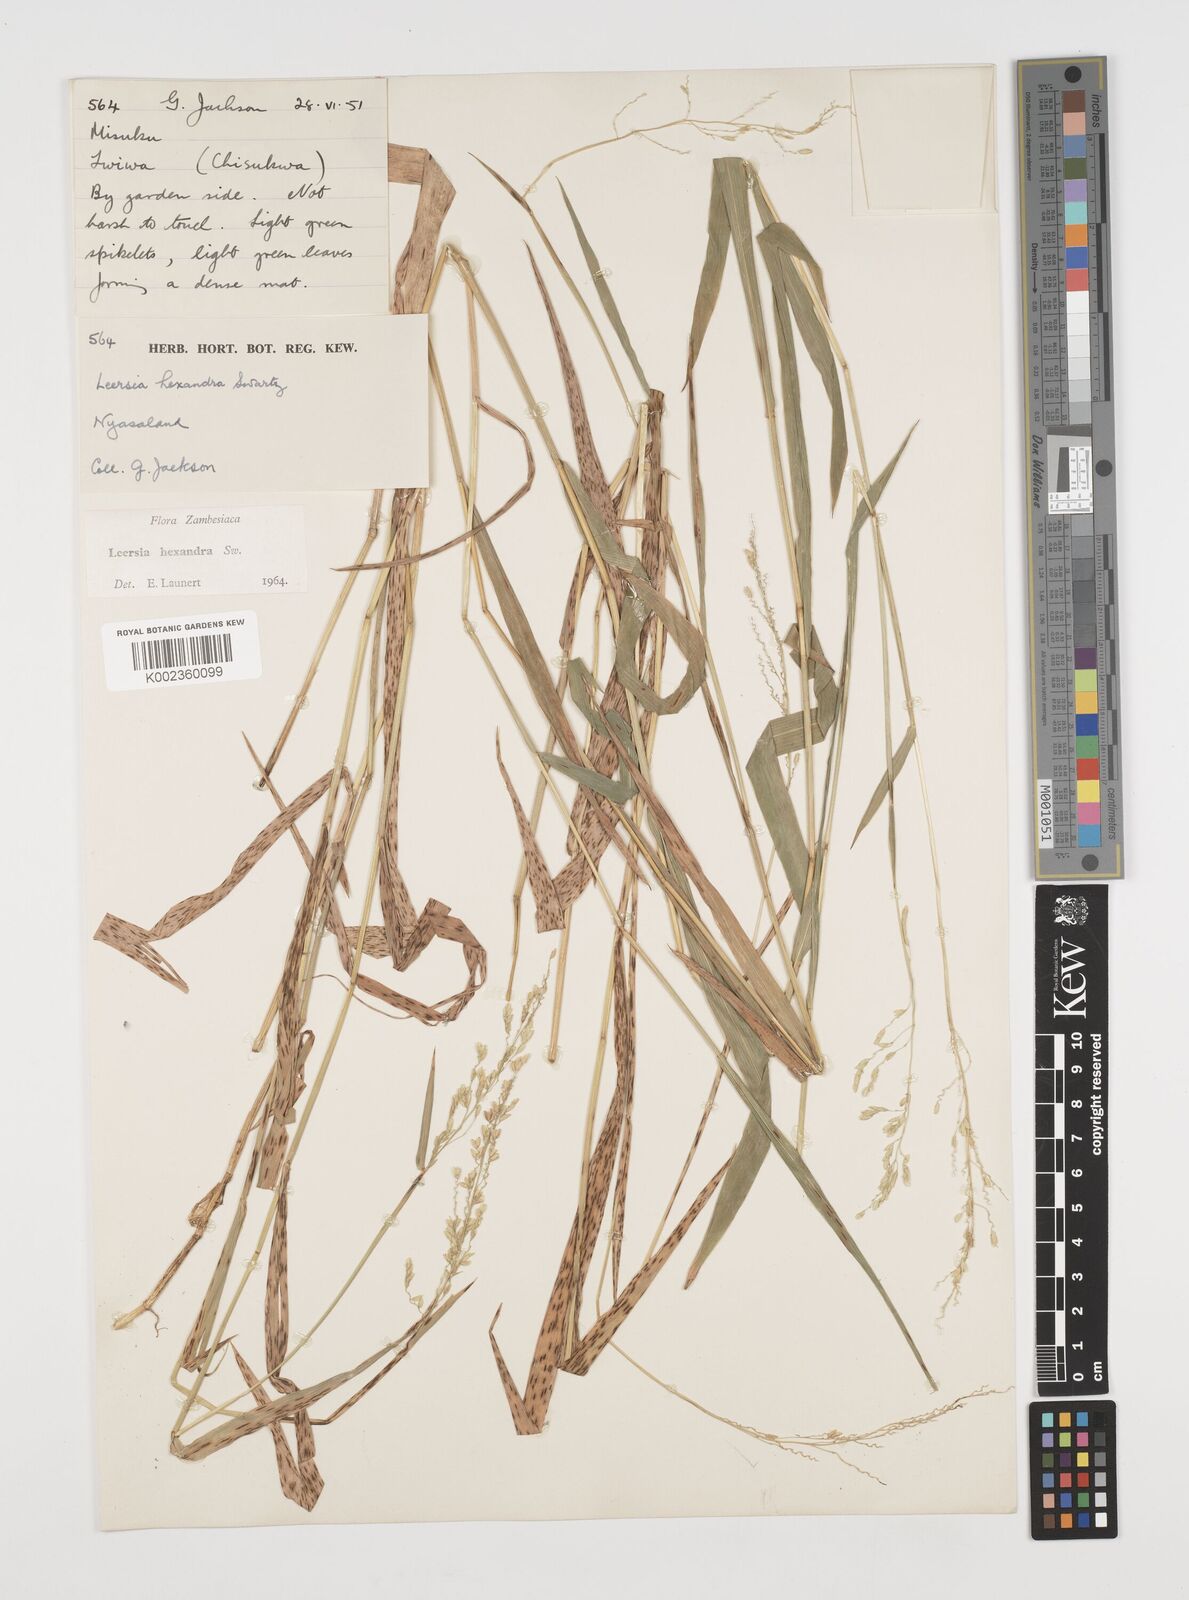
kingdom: Plantae
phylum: Tracheophyta
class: Liliopsida
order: Poales
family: Poaceae
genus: Leersia
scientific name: Leersia hexandra
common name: Southern cut grass
